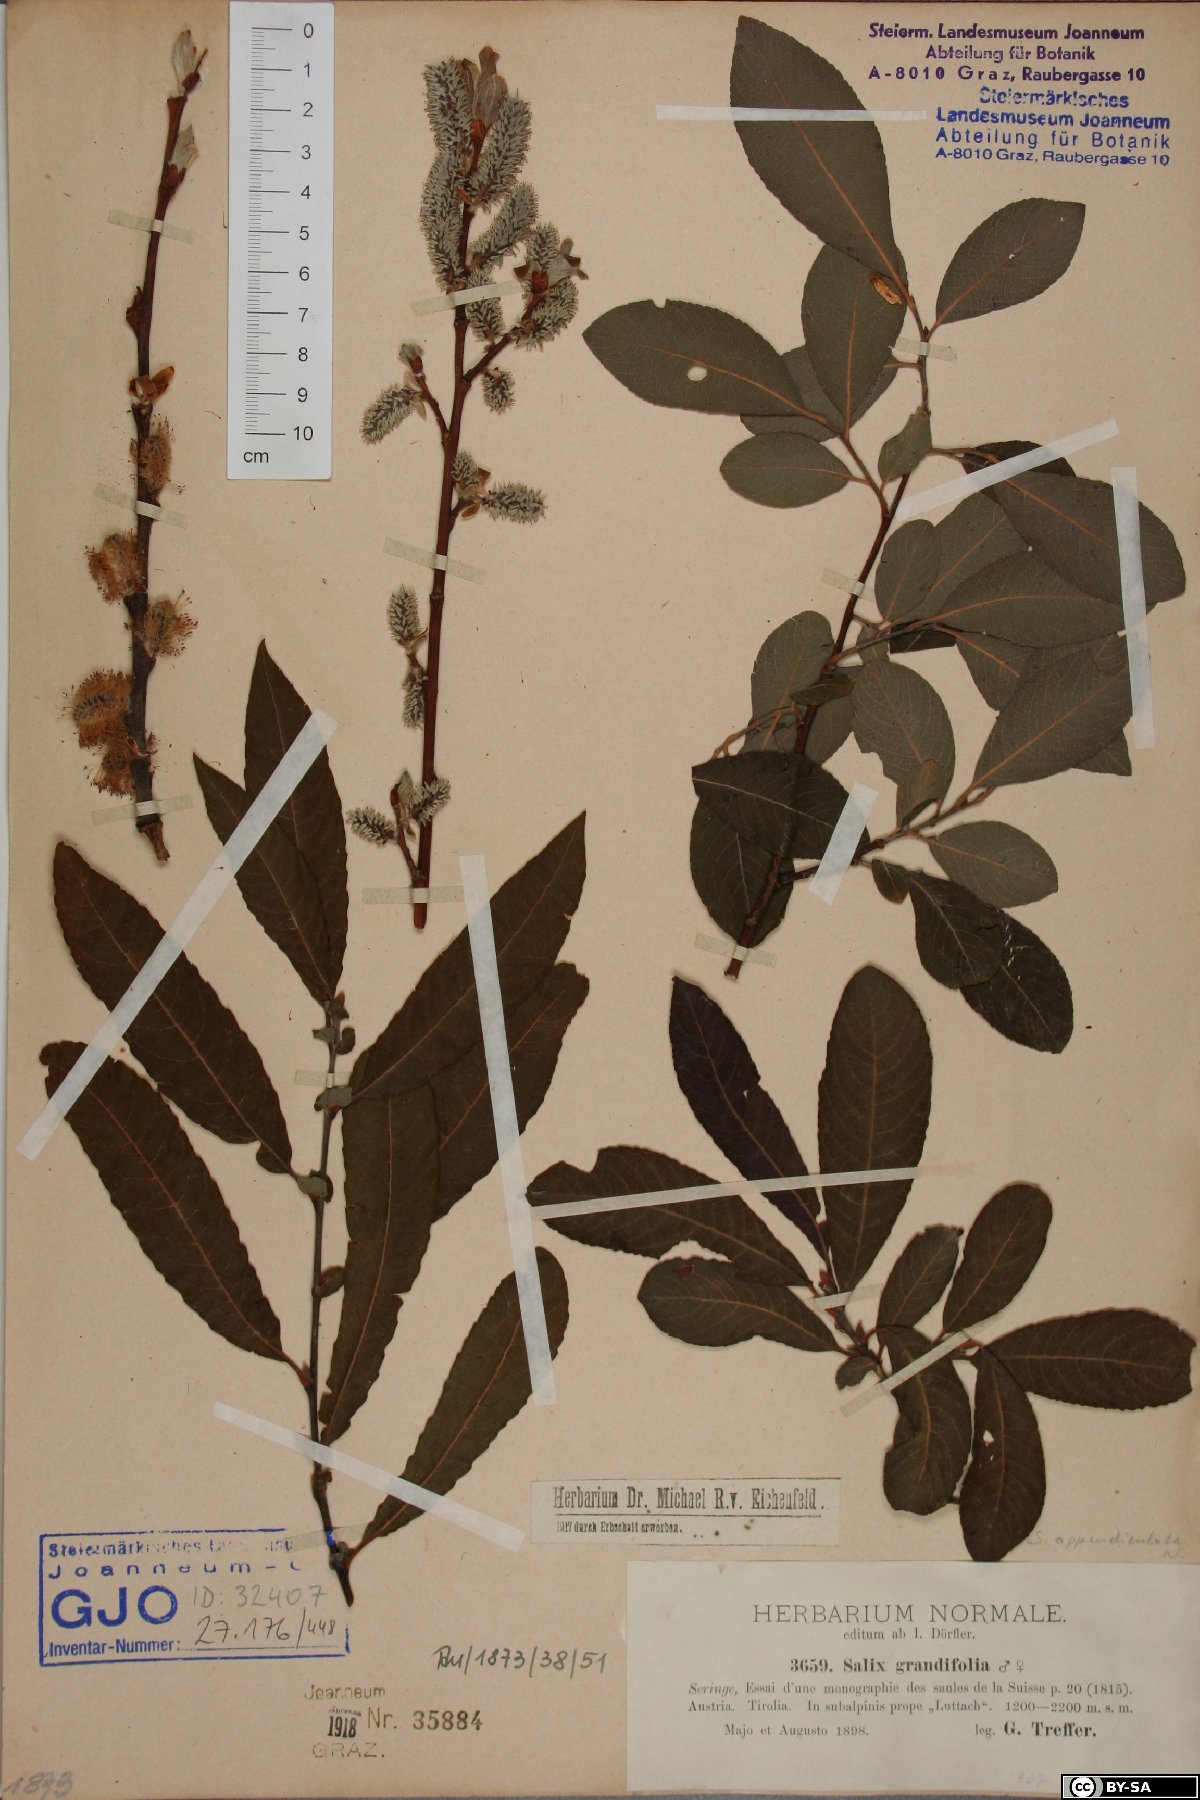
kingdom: Plantae
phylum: Tracheophyta
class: Magnoliopsida
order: Malpighiales
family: Salicaceae
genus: Salix
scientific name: Salix appendiculata
